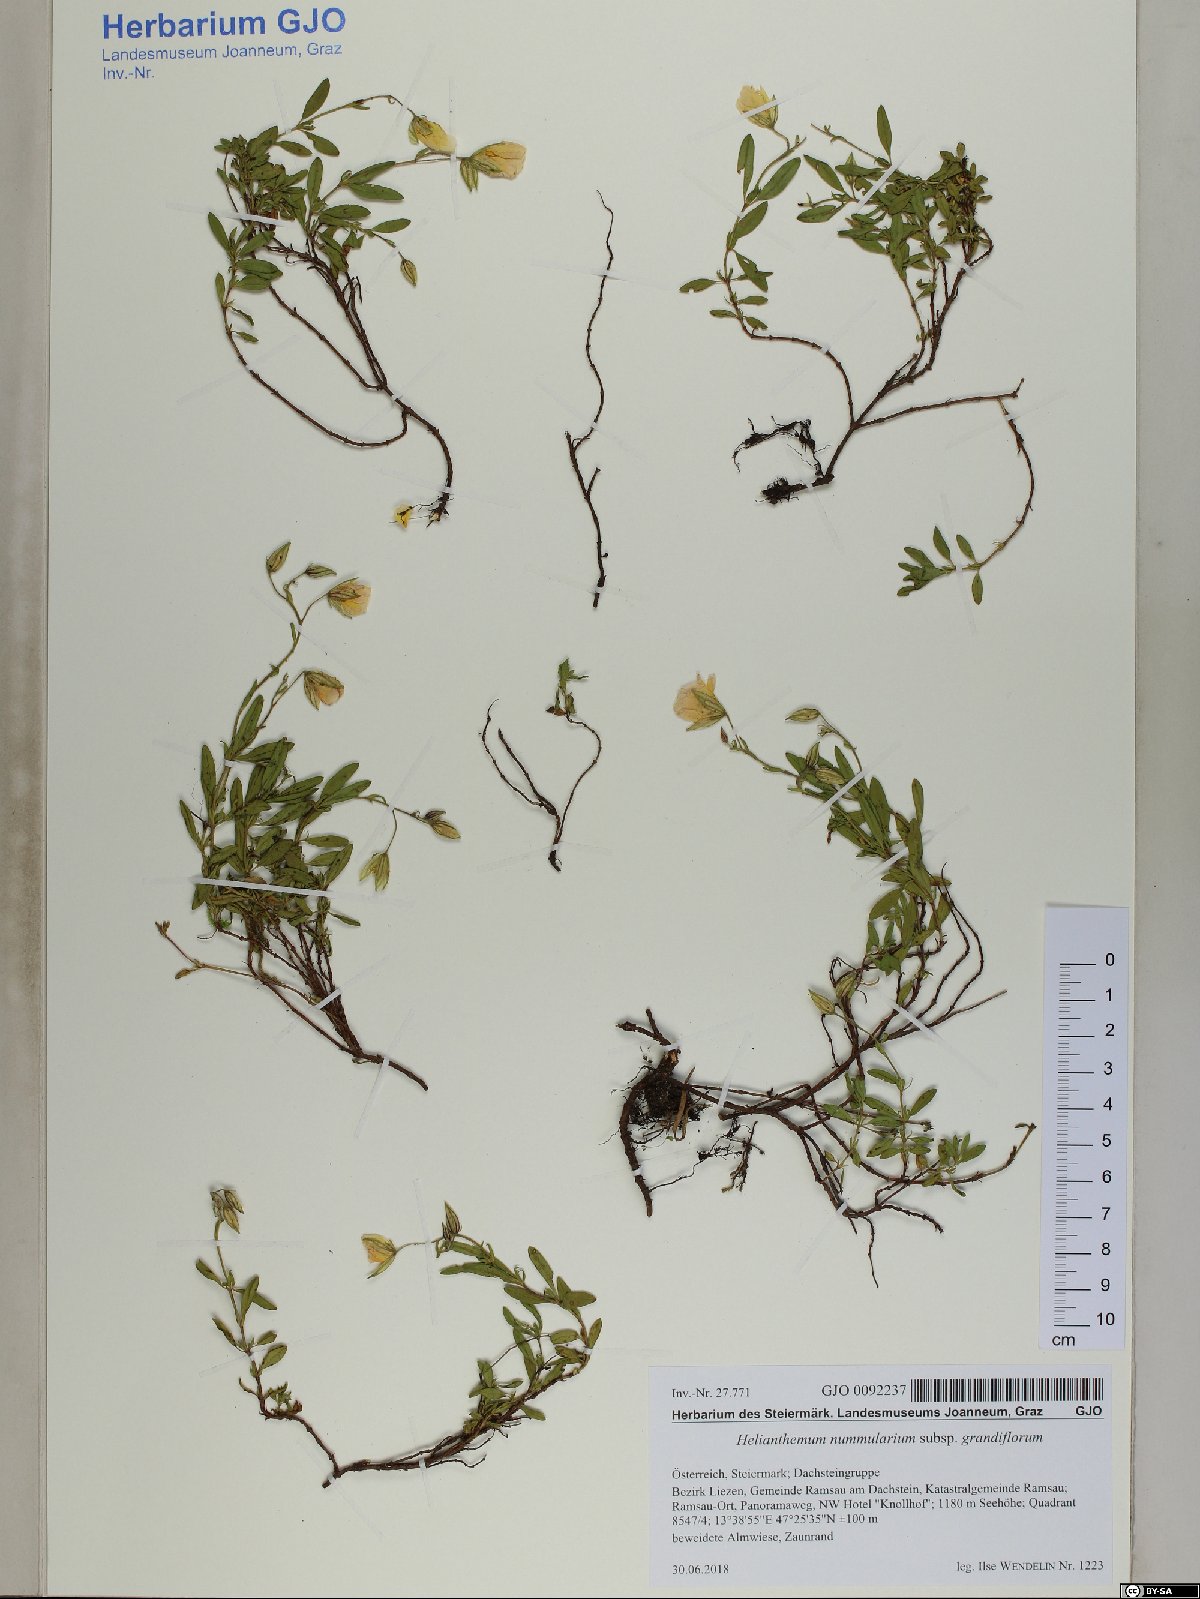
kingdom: Plantae
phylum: Tracheophyta
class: Magnoliopsida
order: Malvales
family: Cistaceae
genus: Helianthemum
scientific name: Helianthemum nummularium
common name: Common rock-rose
